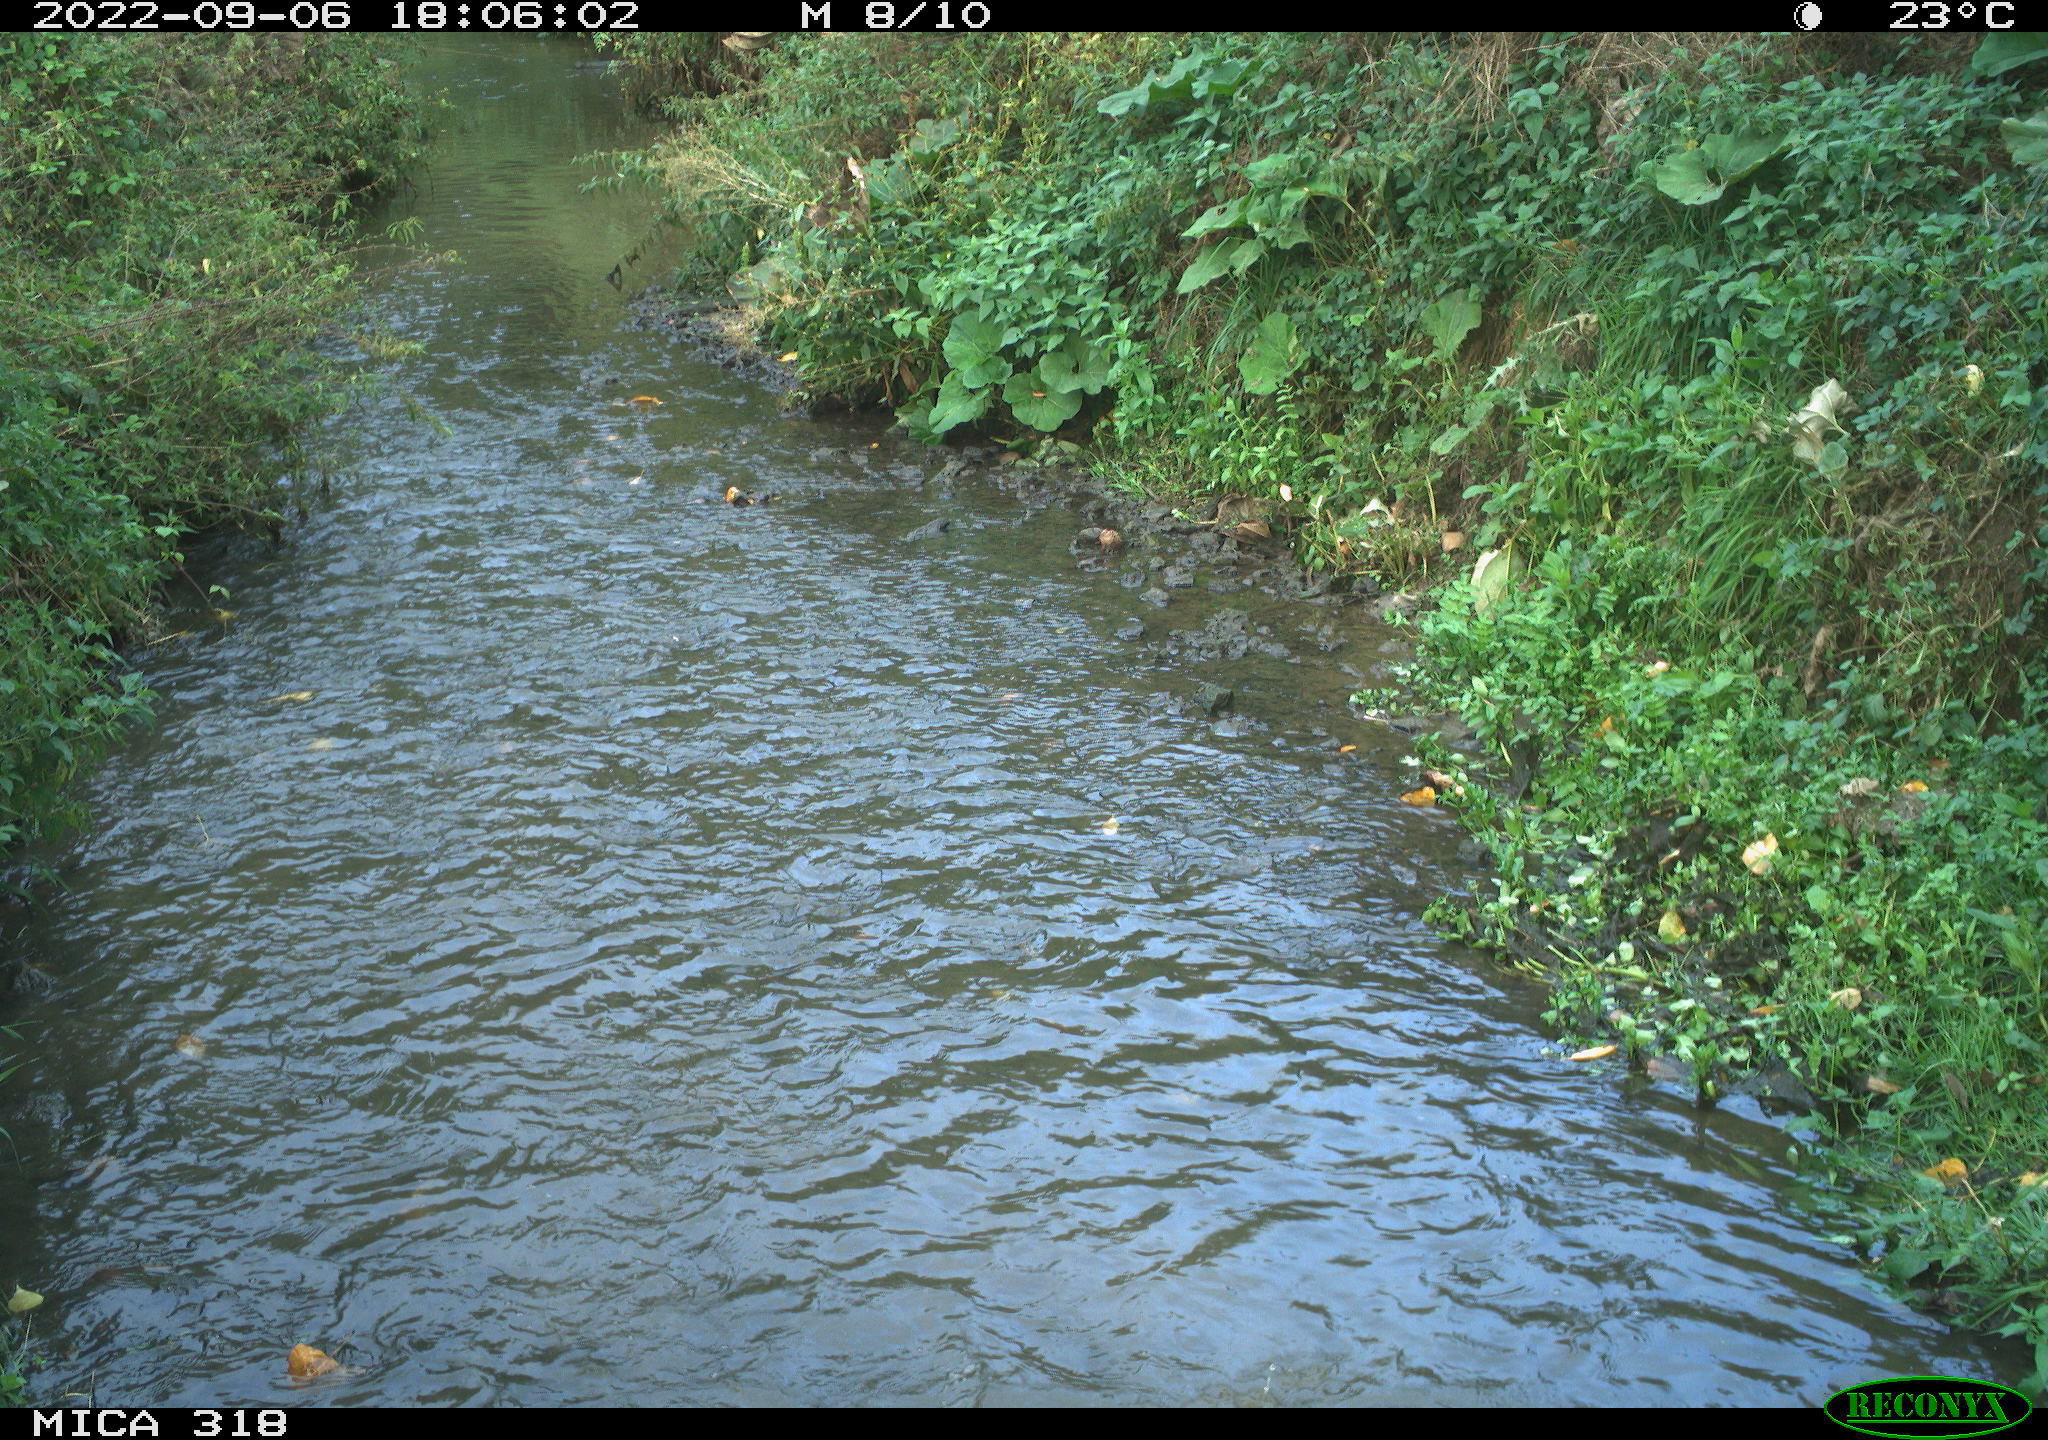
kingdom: Animalia
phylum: Chordata
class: Mammalia
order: Carnivora
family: Canidae
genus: Canis
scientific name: Canis lupus
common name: Gray wolf
